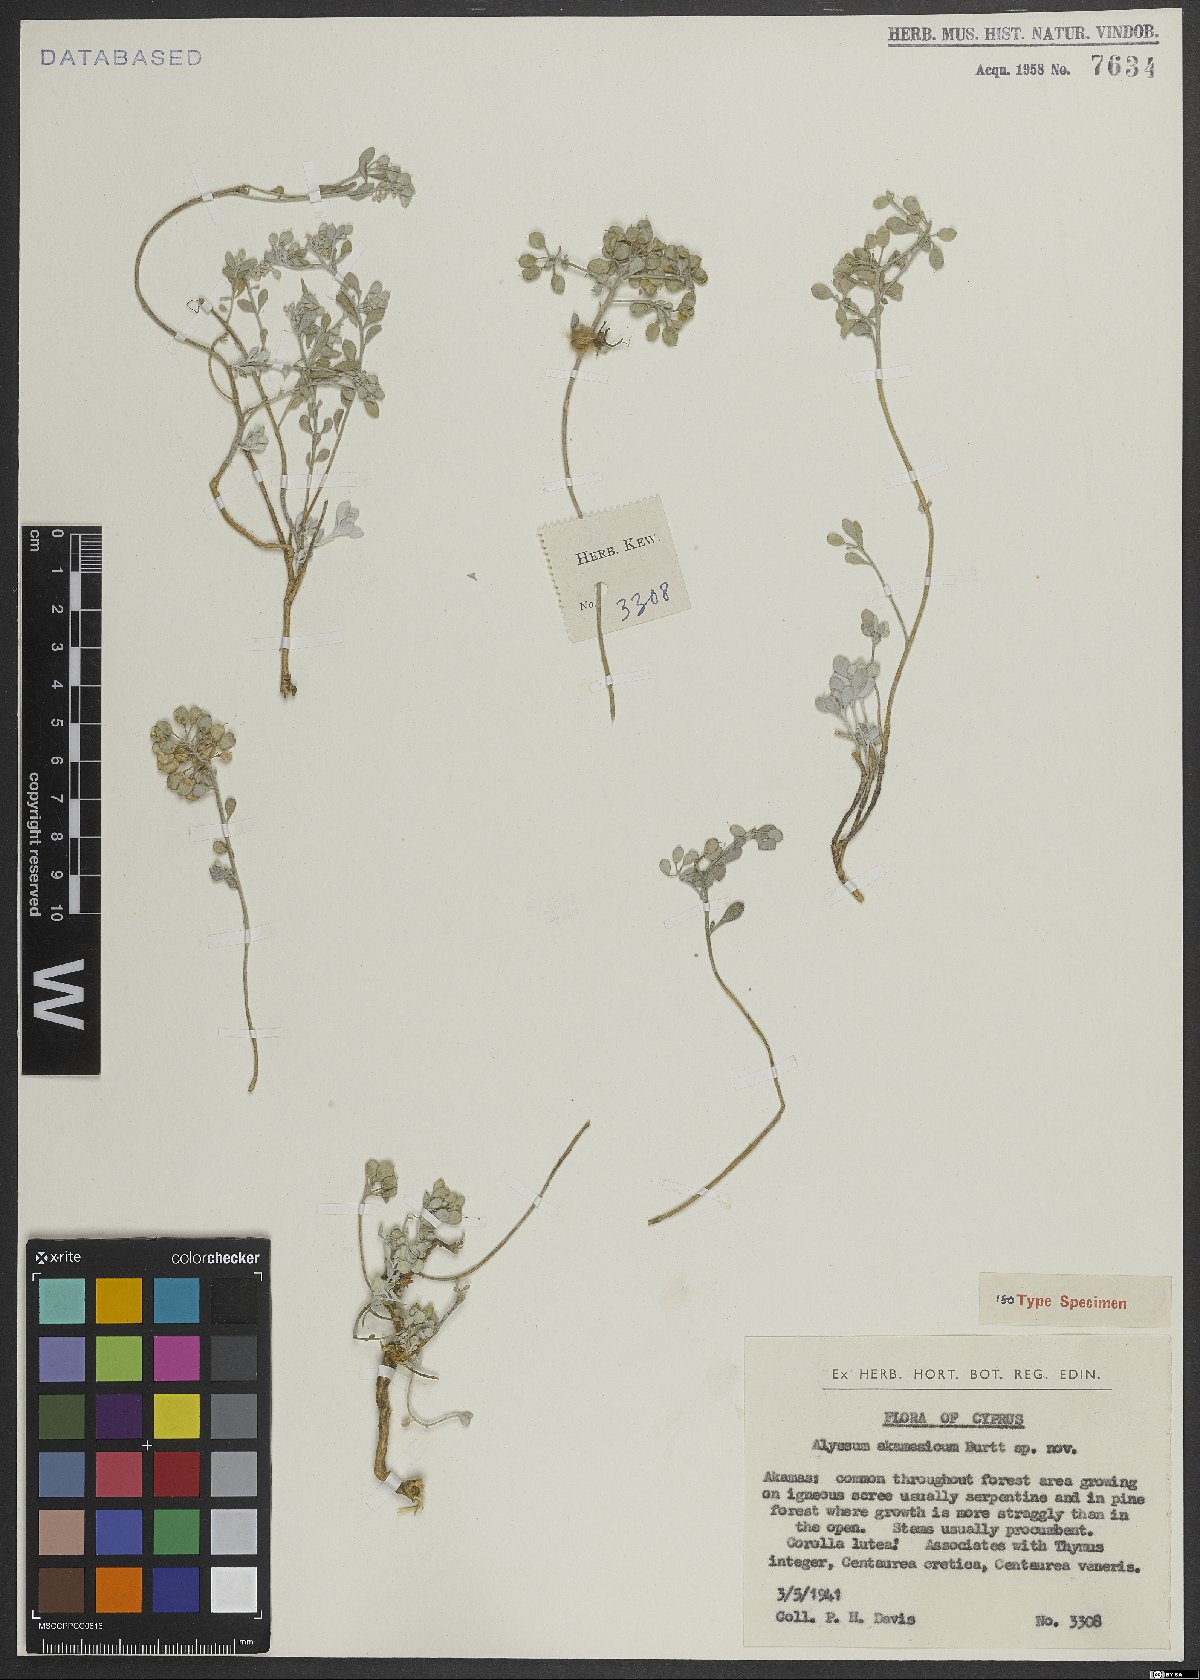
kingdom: Plantae
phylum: Tracheophyta
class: Magnoliopsida
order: Brassicales
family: Brassicaceae
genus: Odontarrhena
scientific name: Odontarrhena akamasica
